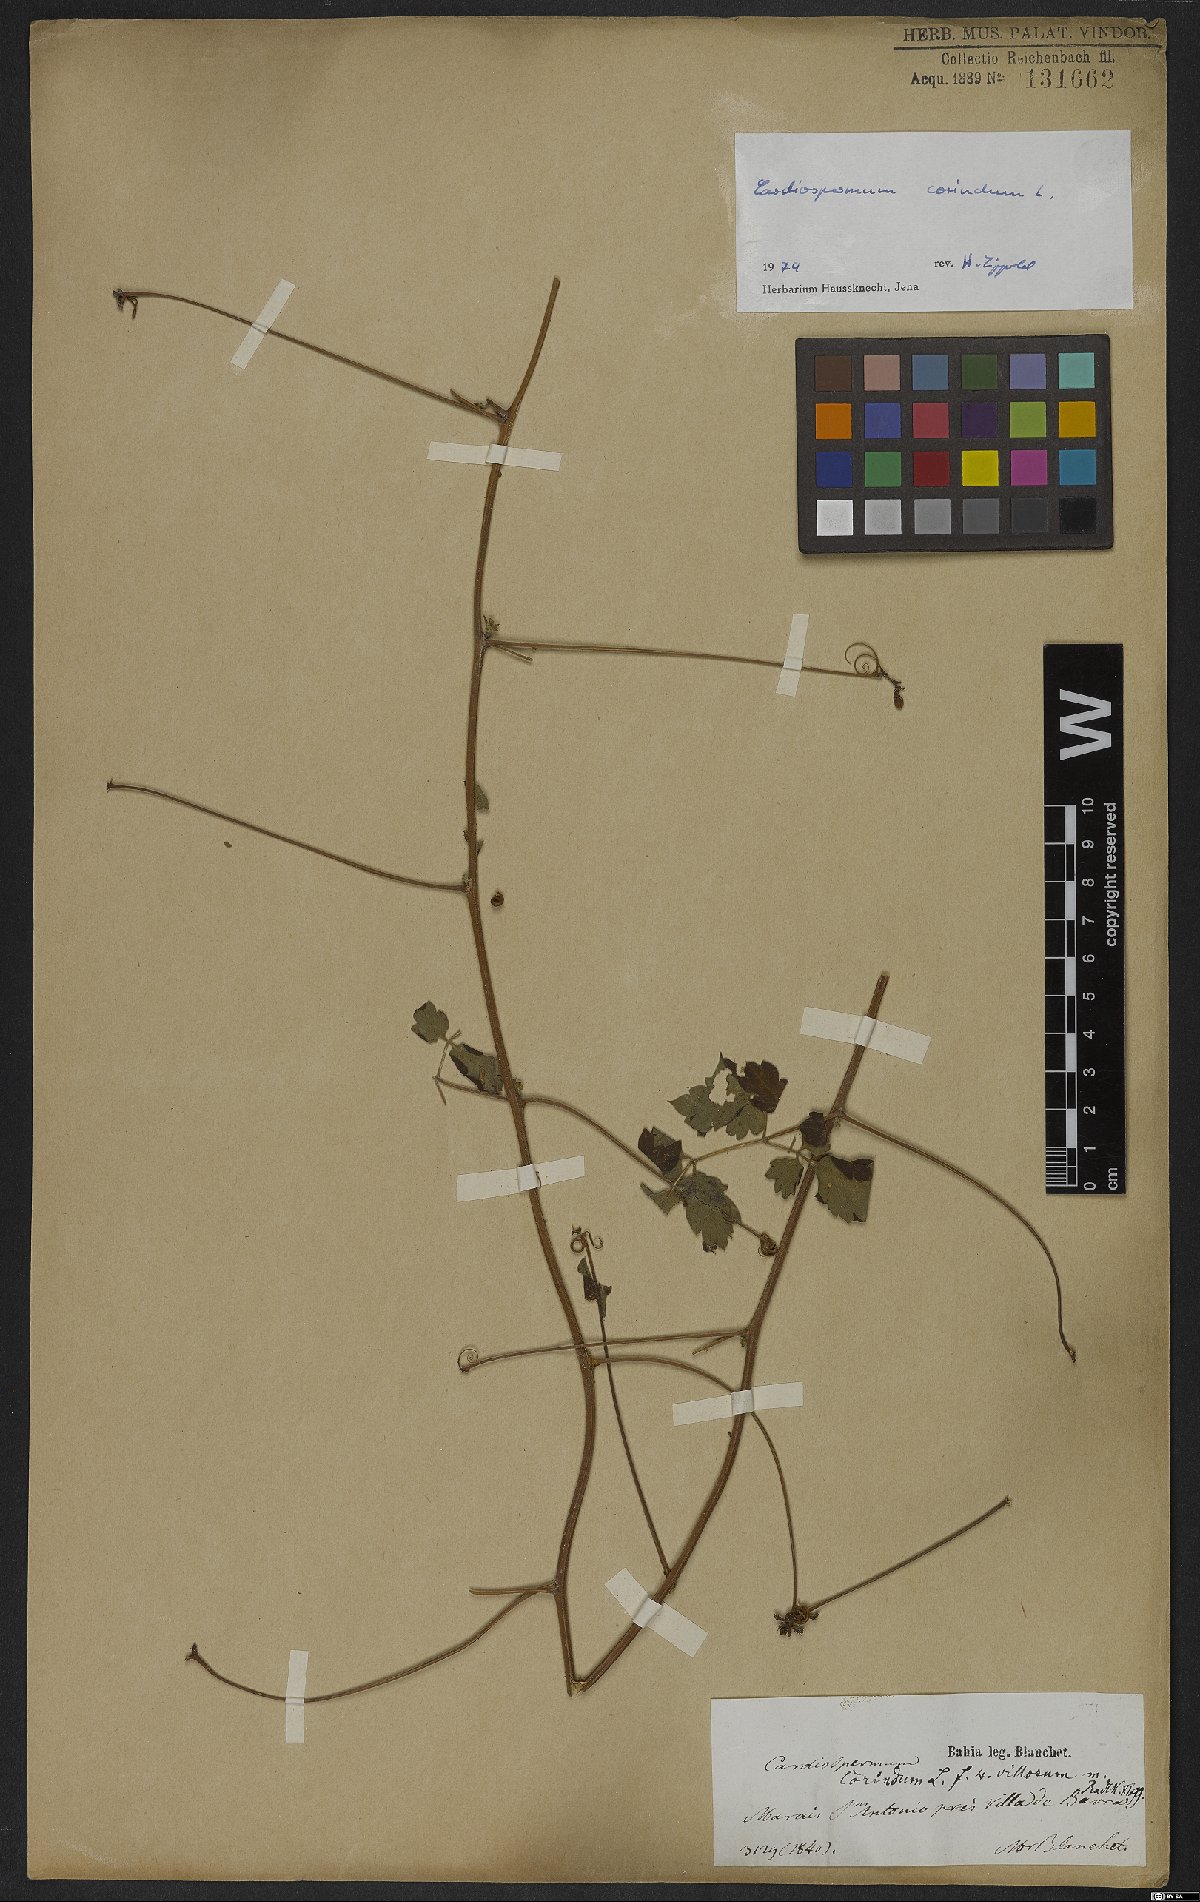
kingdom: Plantae
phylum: Tracheophyta
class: Magnoliopsida
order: Sapindales
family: Sapindaceae
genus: Cardiospermum
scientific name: Cardiospermum corindum
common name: Faux persil
